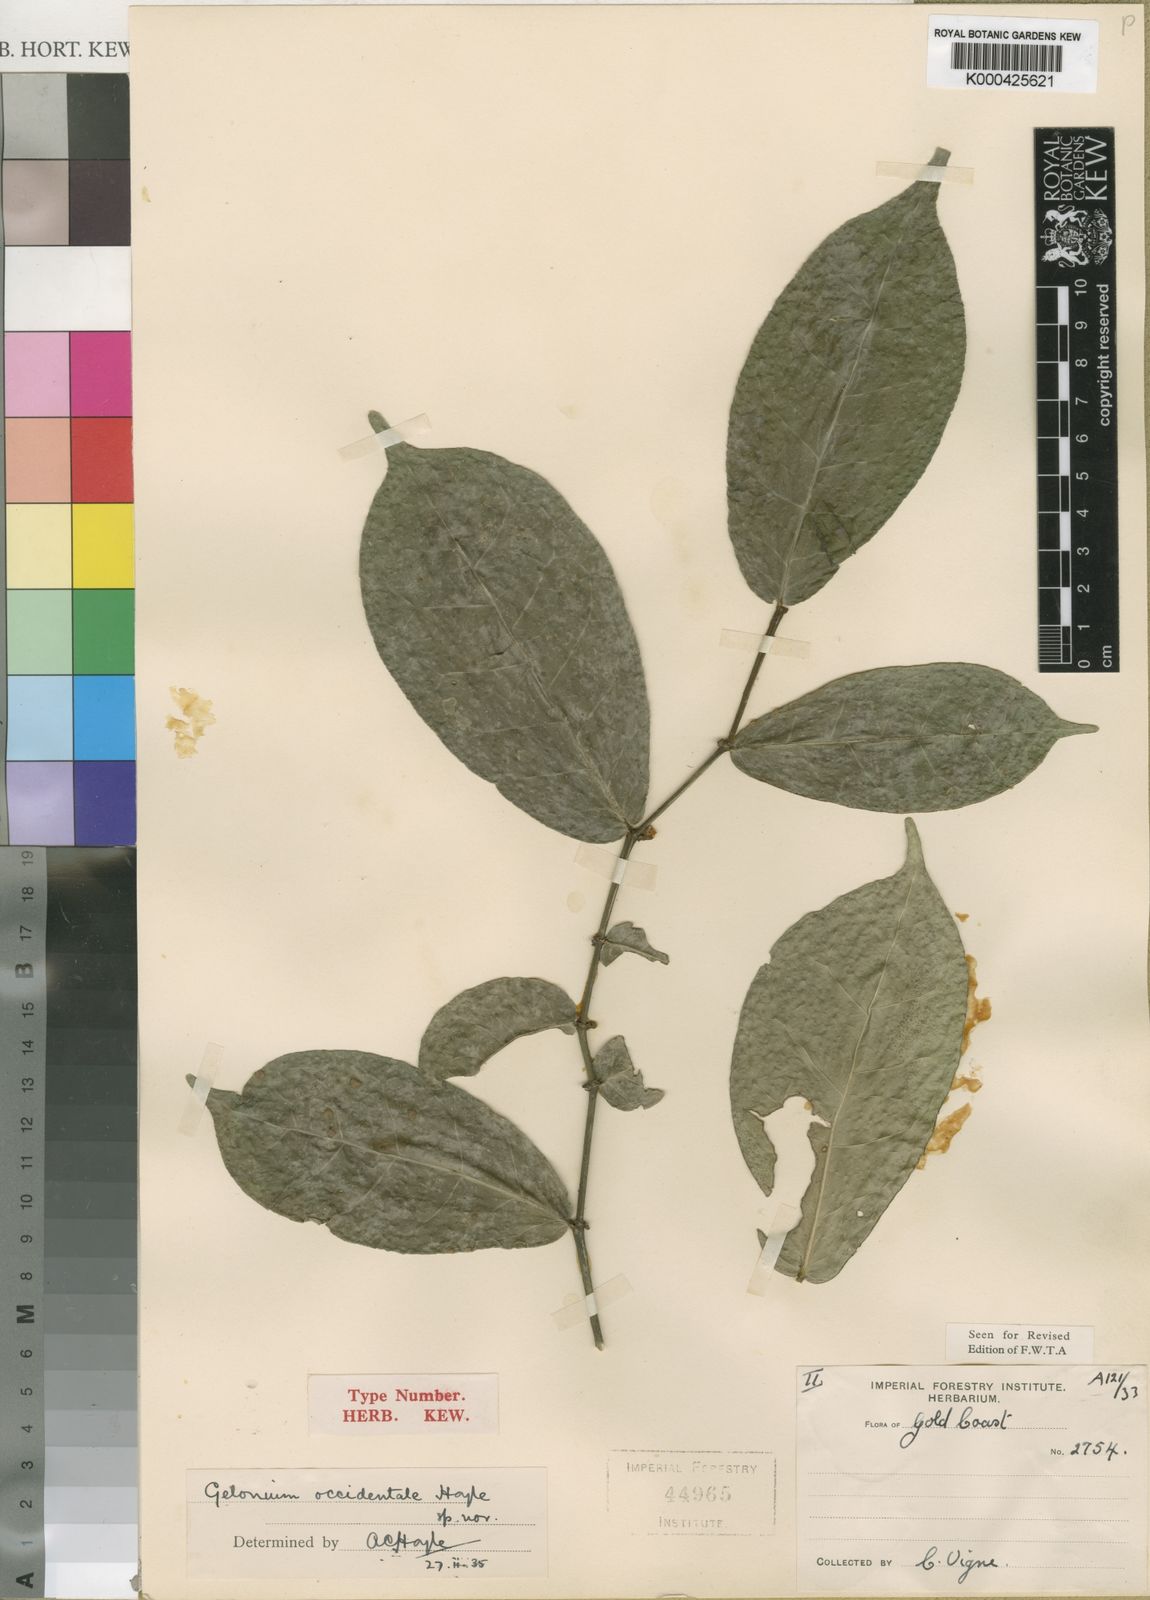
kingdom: Plantae
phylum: Tracheophyta
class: Magnoliopsida
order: Malpighiales
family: Euphorbiaceae
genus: Suregada
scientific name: Suregada occidentalis
